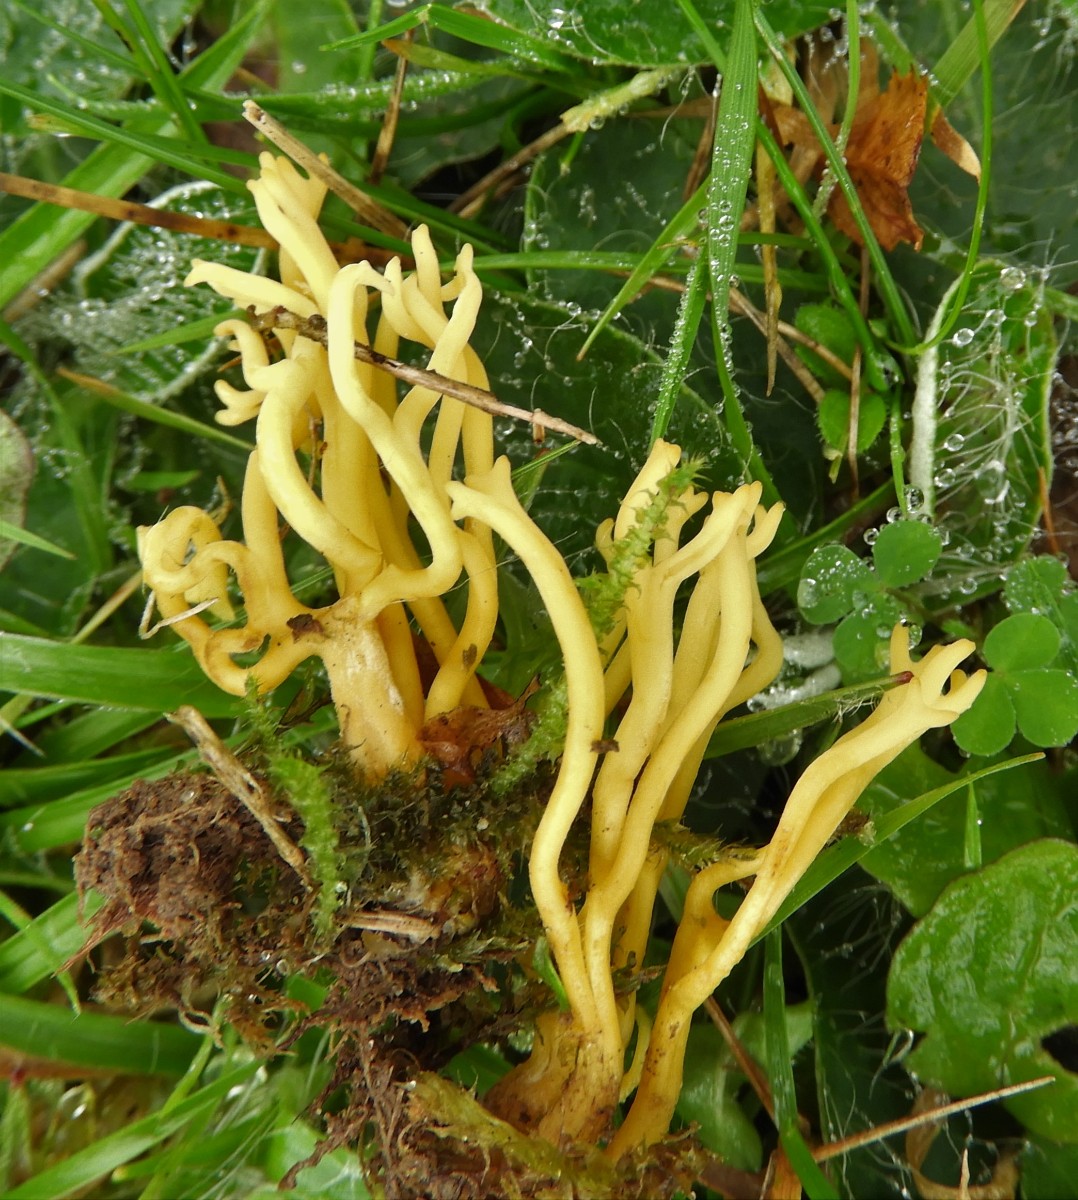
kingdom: Fungi
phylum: Basidiomycota
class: Agaricomycetes
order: Agaricales
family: Clavariaceae
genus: Clavulinopsis
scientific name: Clavulinopsis corniculata
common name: eng-køllesvamp
